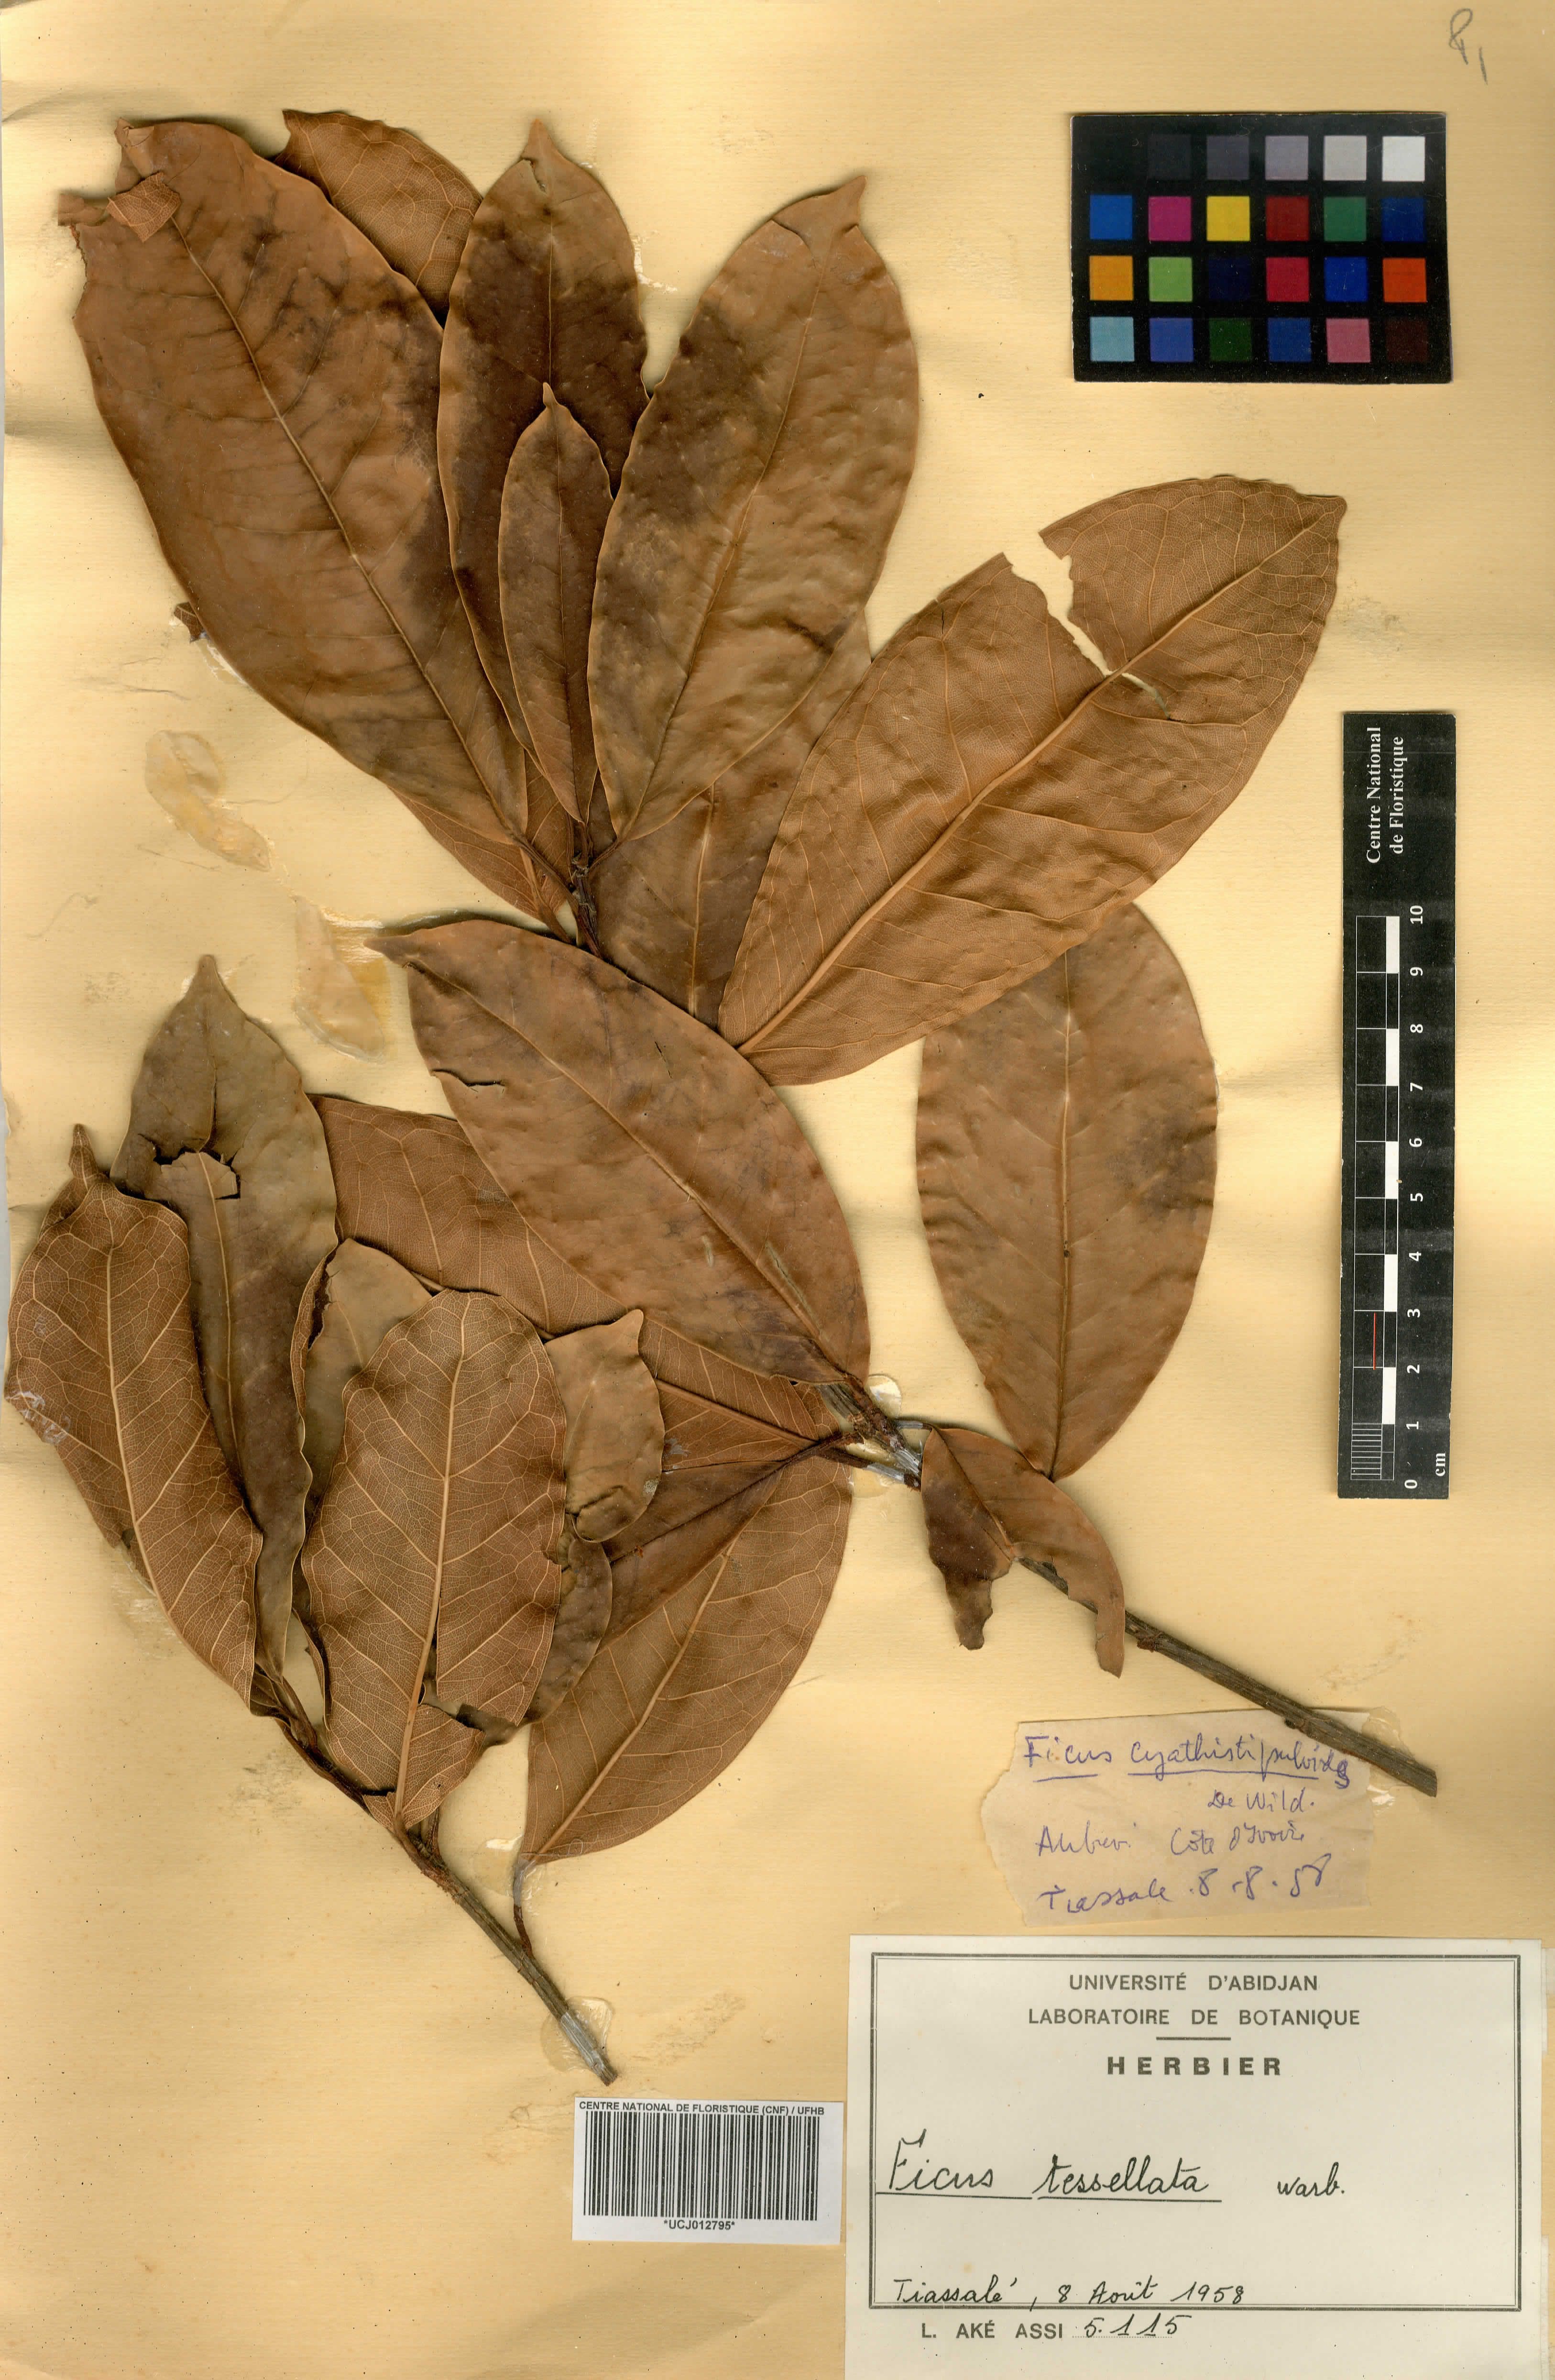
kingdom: Plantae
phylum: Tracheophyta
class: Magnoliopsida
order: Rosales
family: Moraceae
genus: Ficus
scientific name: Ficus tesselata
